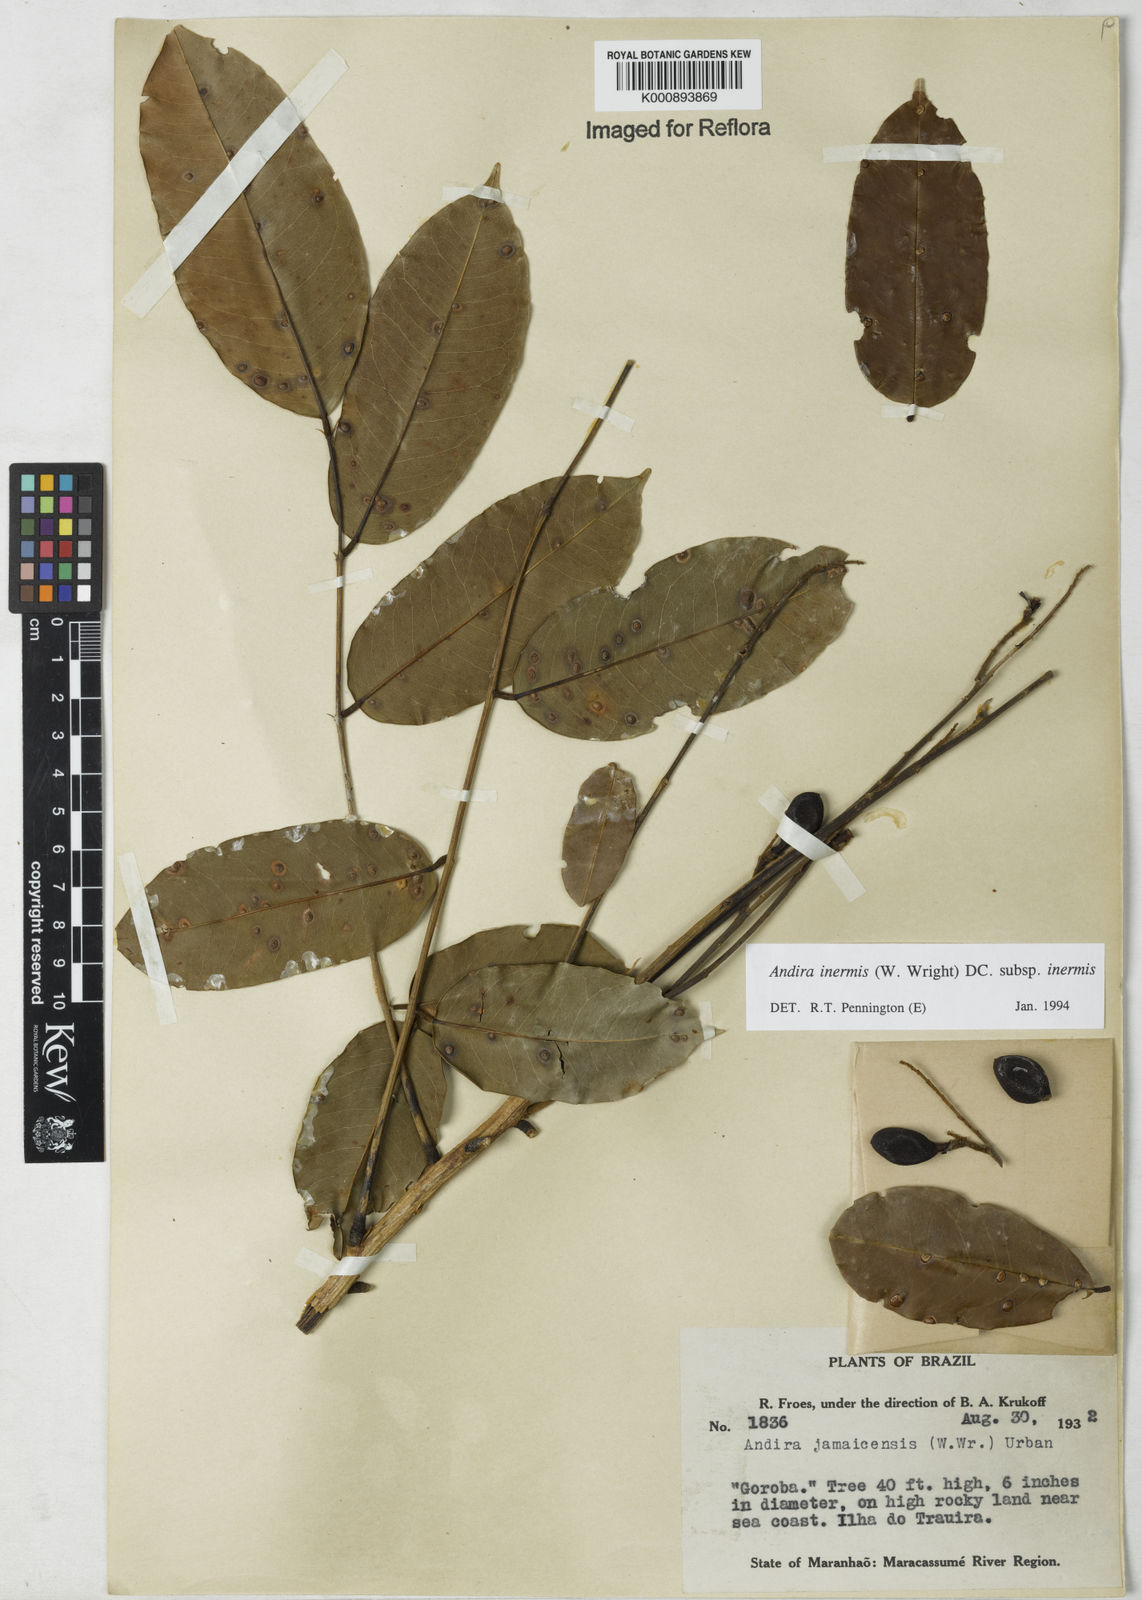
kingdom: Plantae
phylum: Tracheophyta
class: Magnoliopsida
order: Fabales
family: Fabaceae
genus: Andira
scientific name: Andira inermis
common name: Angelin
